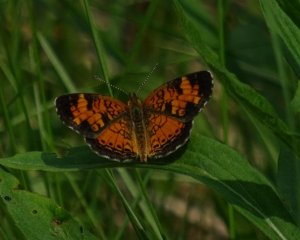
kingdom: Animalia
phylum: Arthropoda
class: Insecta
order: Lepidoptera
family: Nymphalidae
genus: Phyciodes
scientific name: Phyciodes tharos
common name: Northern Crescent
